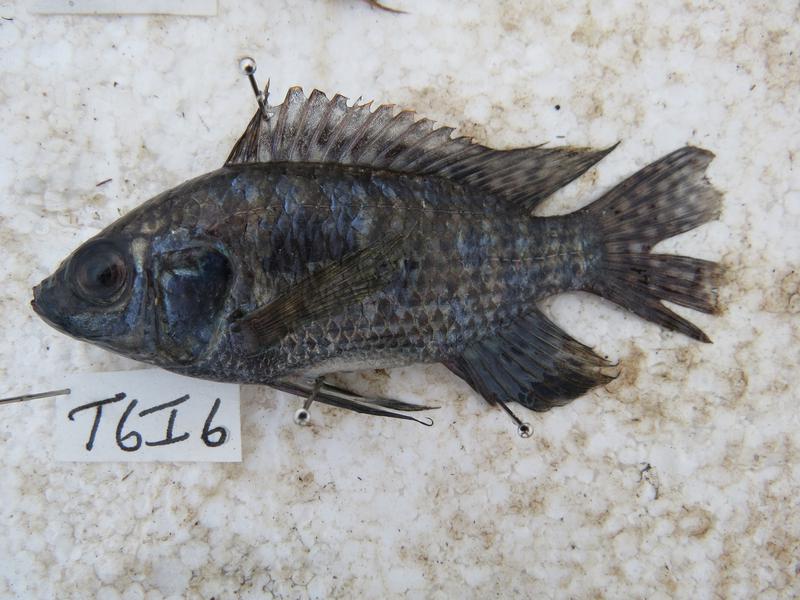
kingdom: Animalia
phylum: Chordata
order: Perciformes
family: Cichlidae
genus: Oreochromis
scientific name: Oreochromis leucostictus
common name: Blue spotted tilapia
